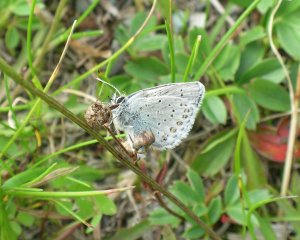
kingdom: Animalia
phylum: Arthropoda
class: Insecta
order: Lepidoptera
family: Lycaenidae
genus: Lycaeides
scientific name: Lycaeides idas
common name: Northern Blue
